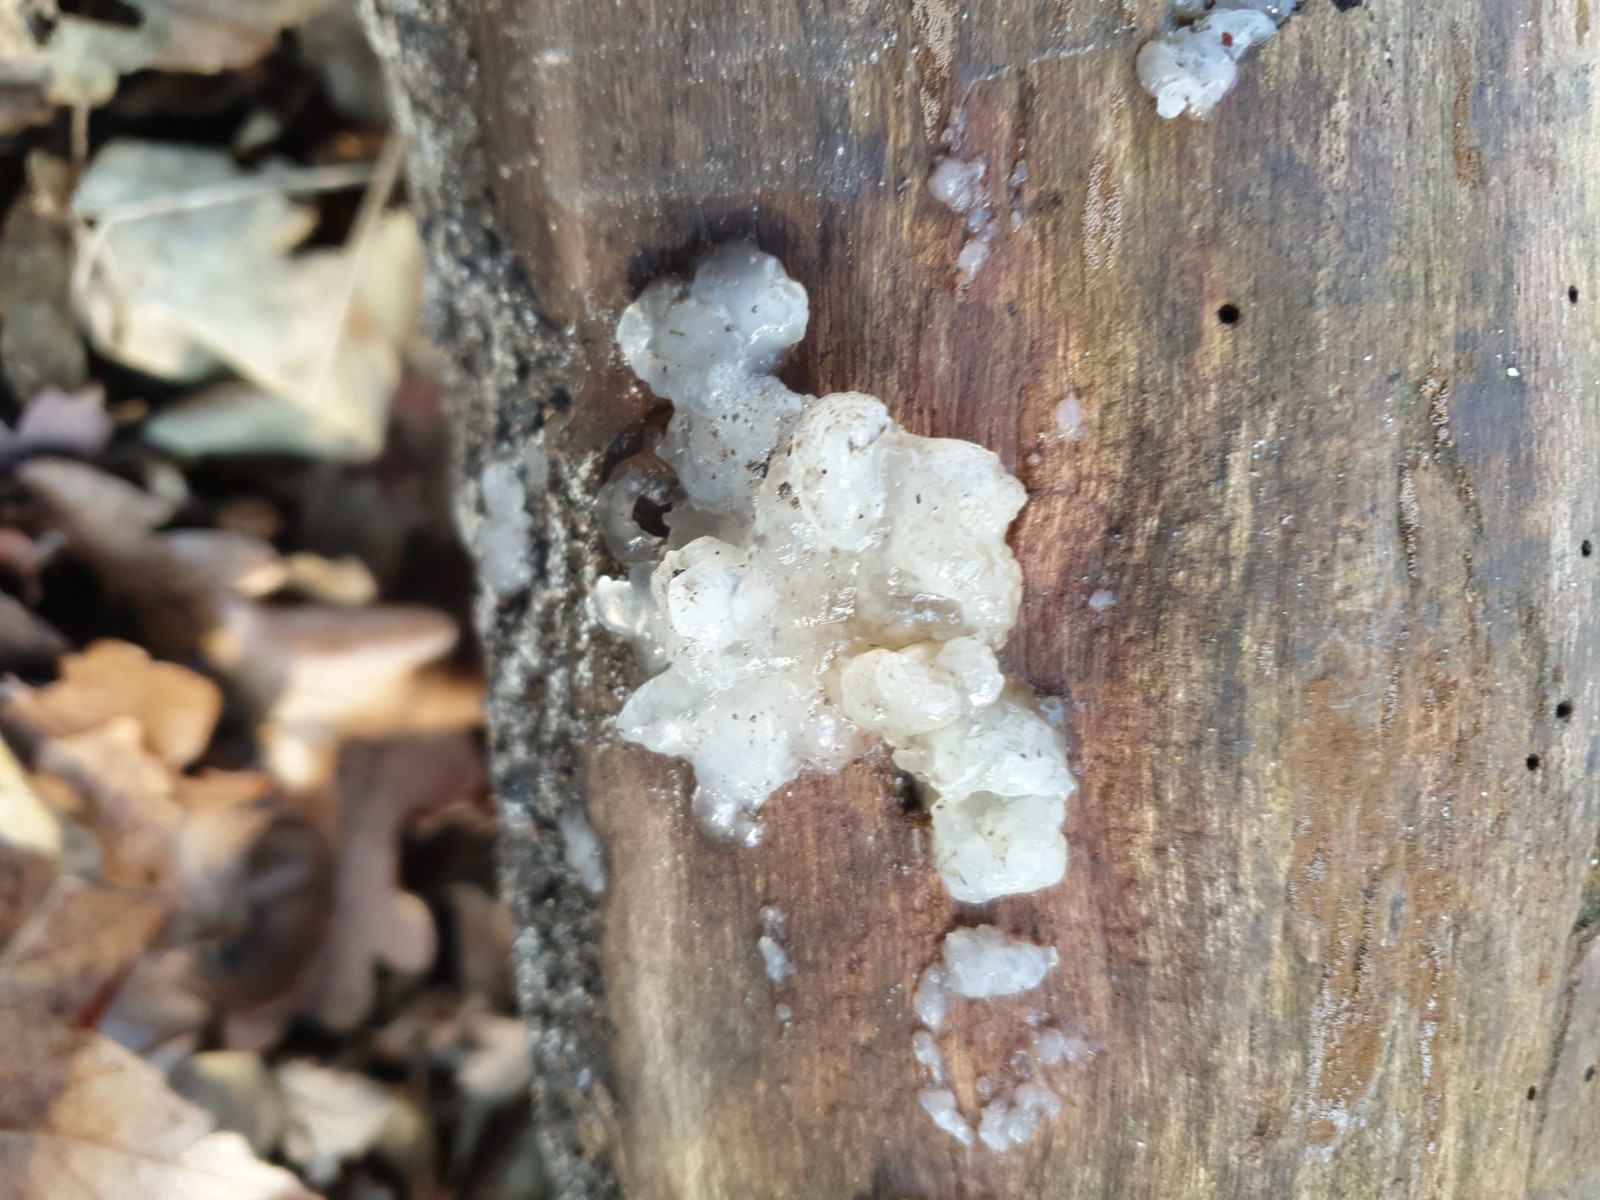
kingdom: Fungi
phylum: Basidiomycota
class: Agaricomycetes
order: Auriculariales
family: Hyaloriaceae
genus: Myxarium
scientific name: Myxarium nucleatum
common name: klar bævretop
